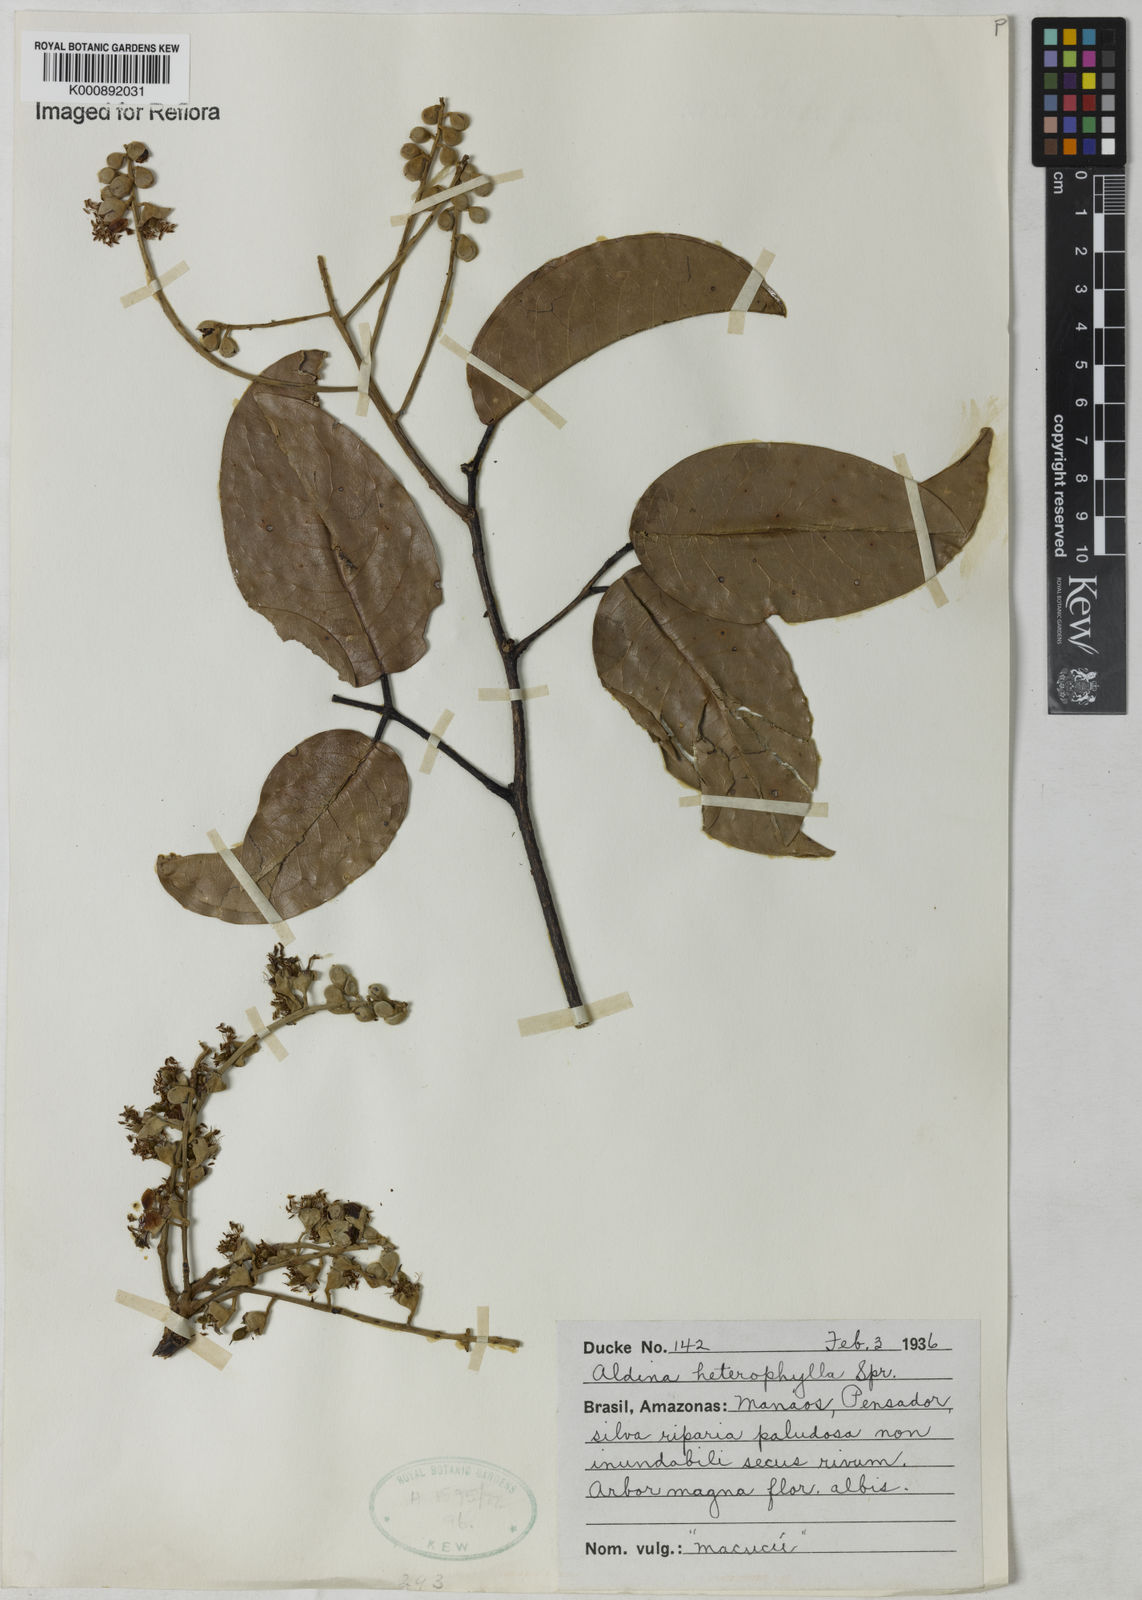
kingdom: Plantae
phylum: Tracheophyta
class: Magnoliopsida
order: Fabales
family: Fabaceae
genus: Aldina
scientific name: Aldina heterophylla
